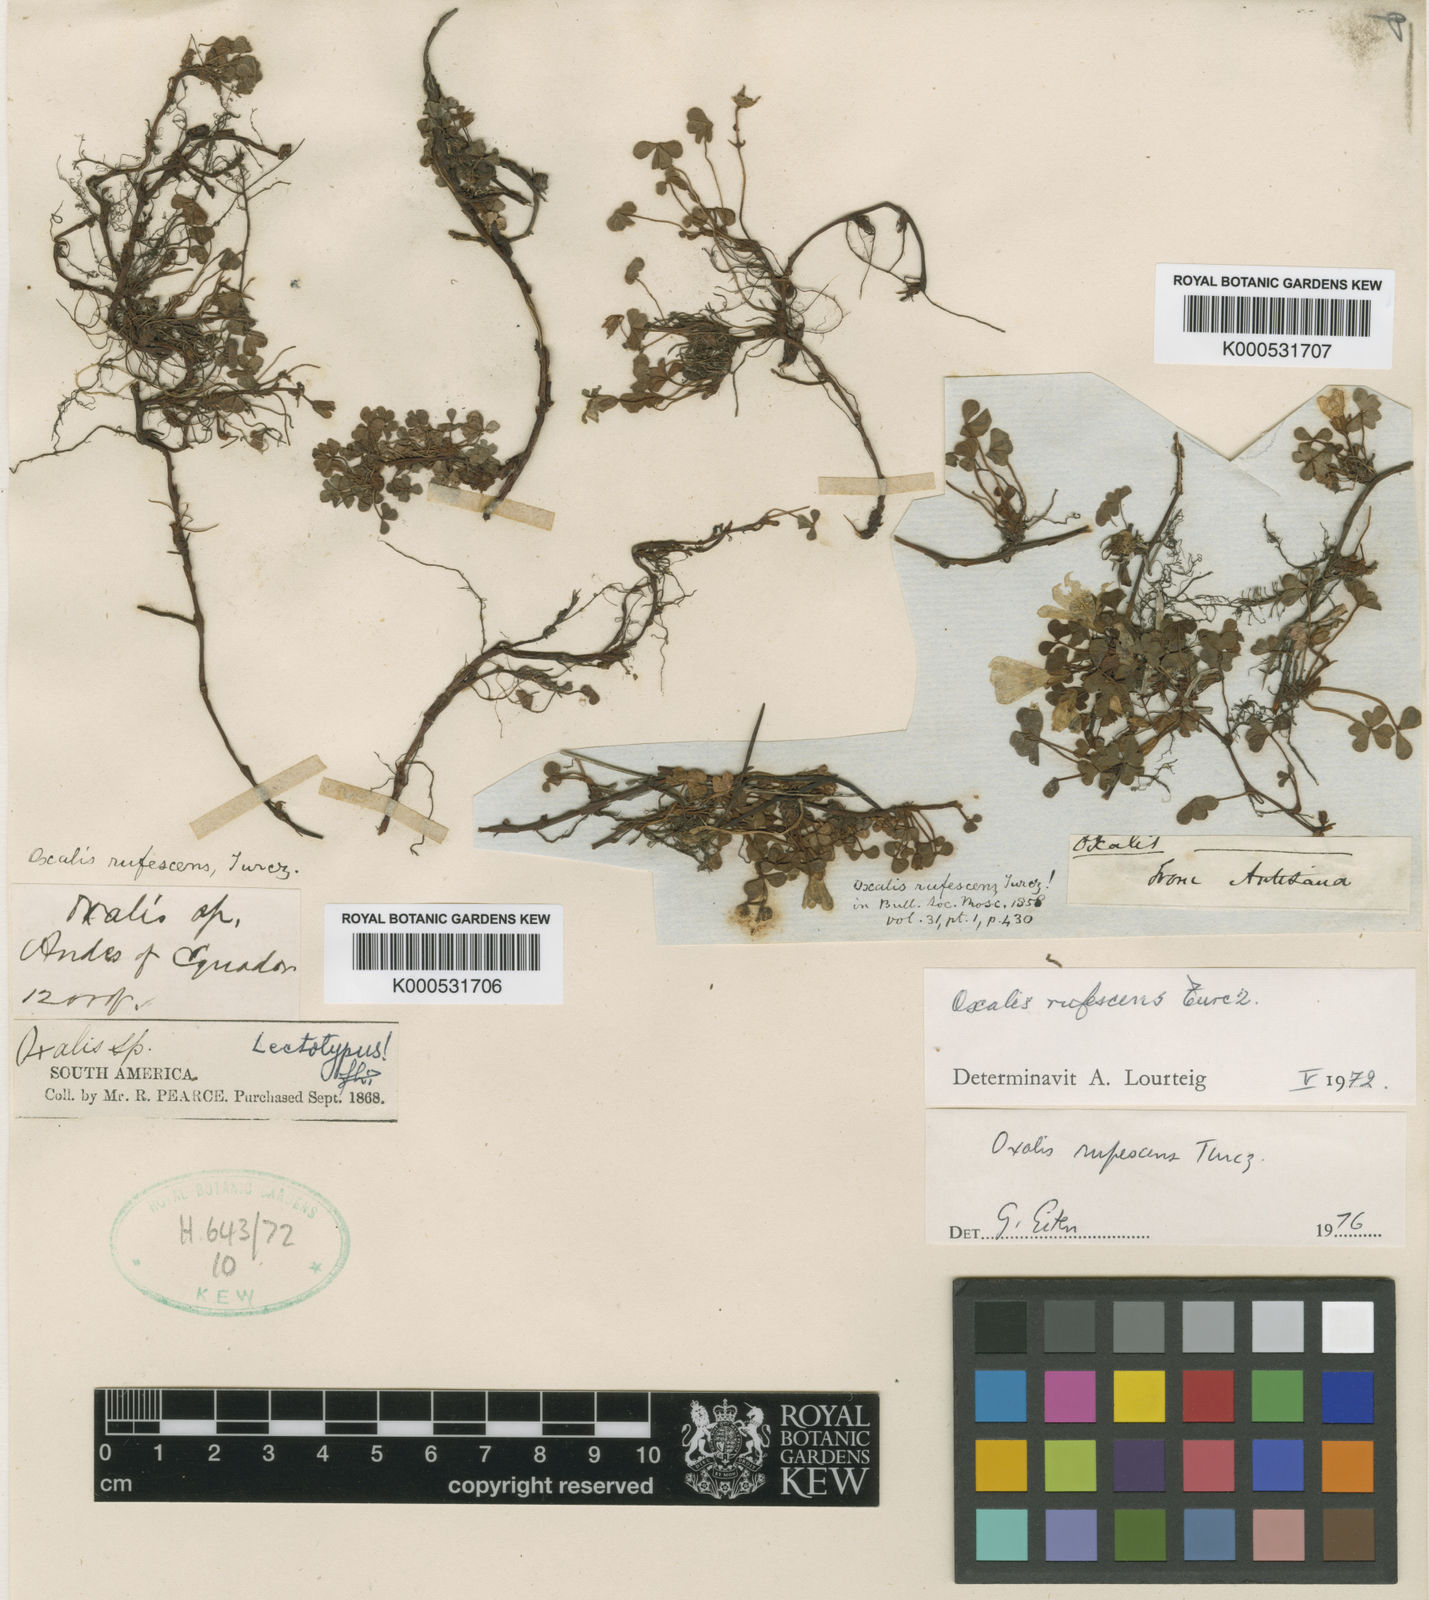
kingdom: Plantae
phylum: Tracheophyta
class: Magnoliopsida
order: Oxalidales
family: Oxalidaceae
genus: Oxalis
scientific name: Oxalis
